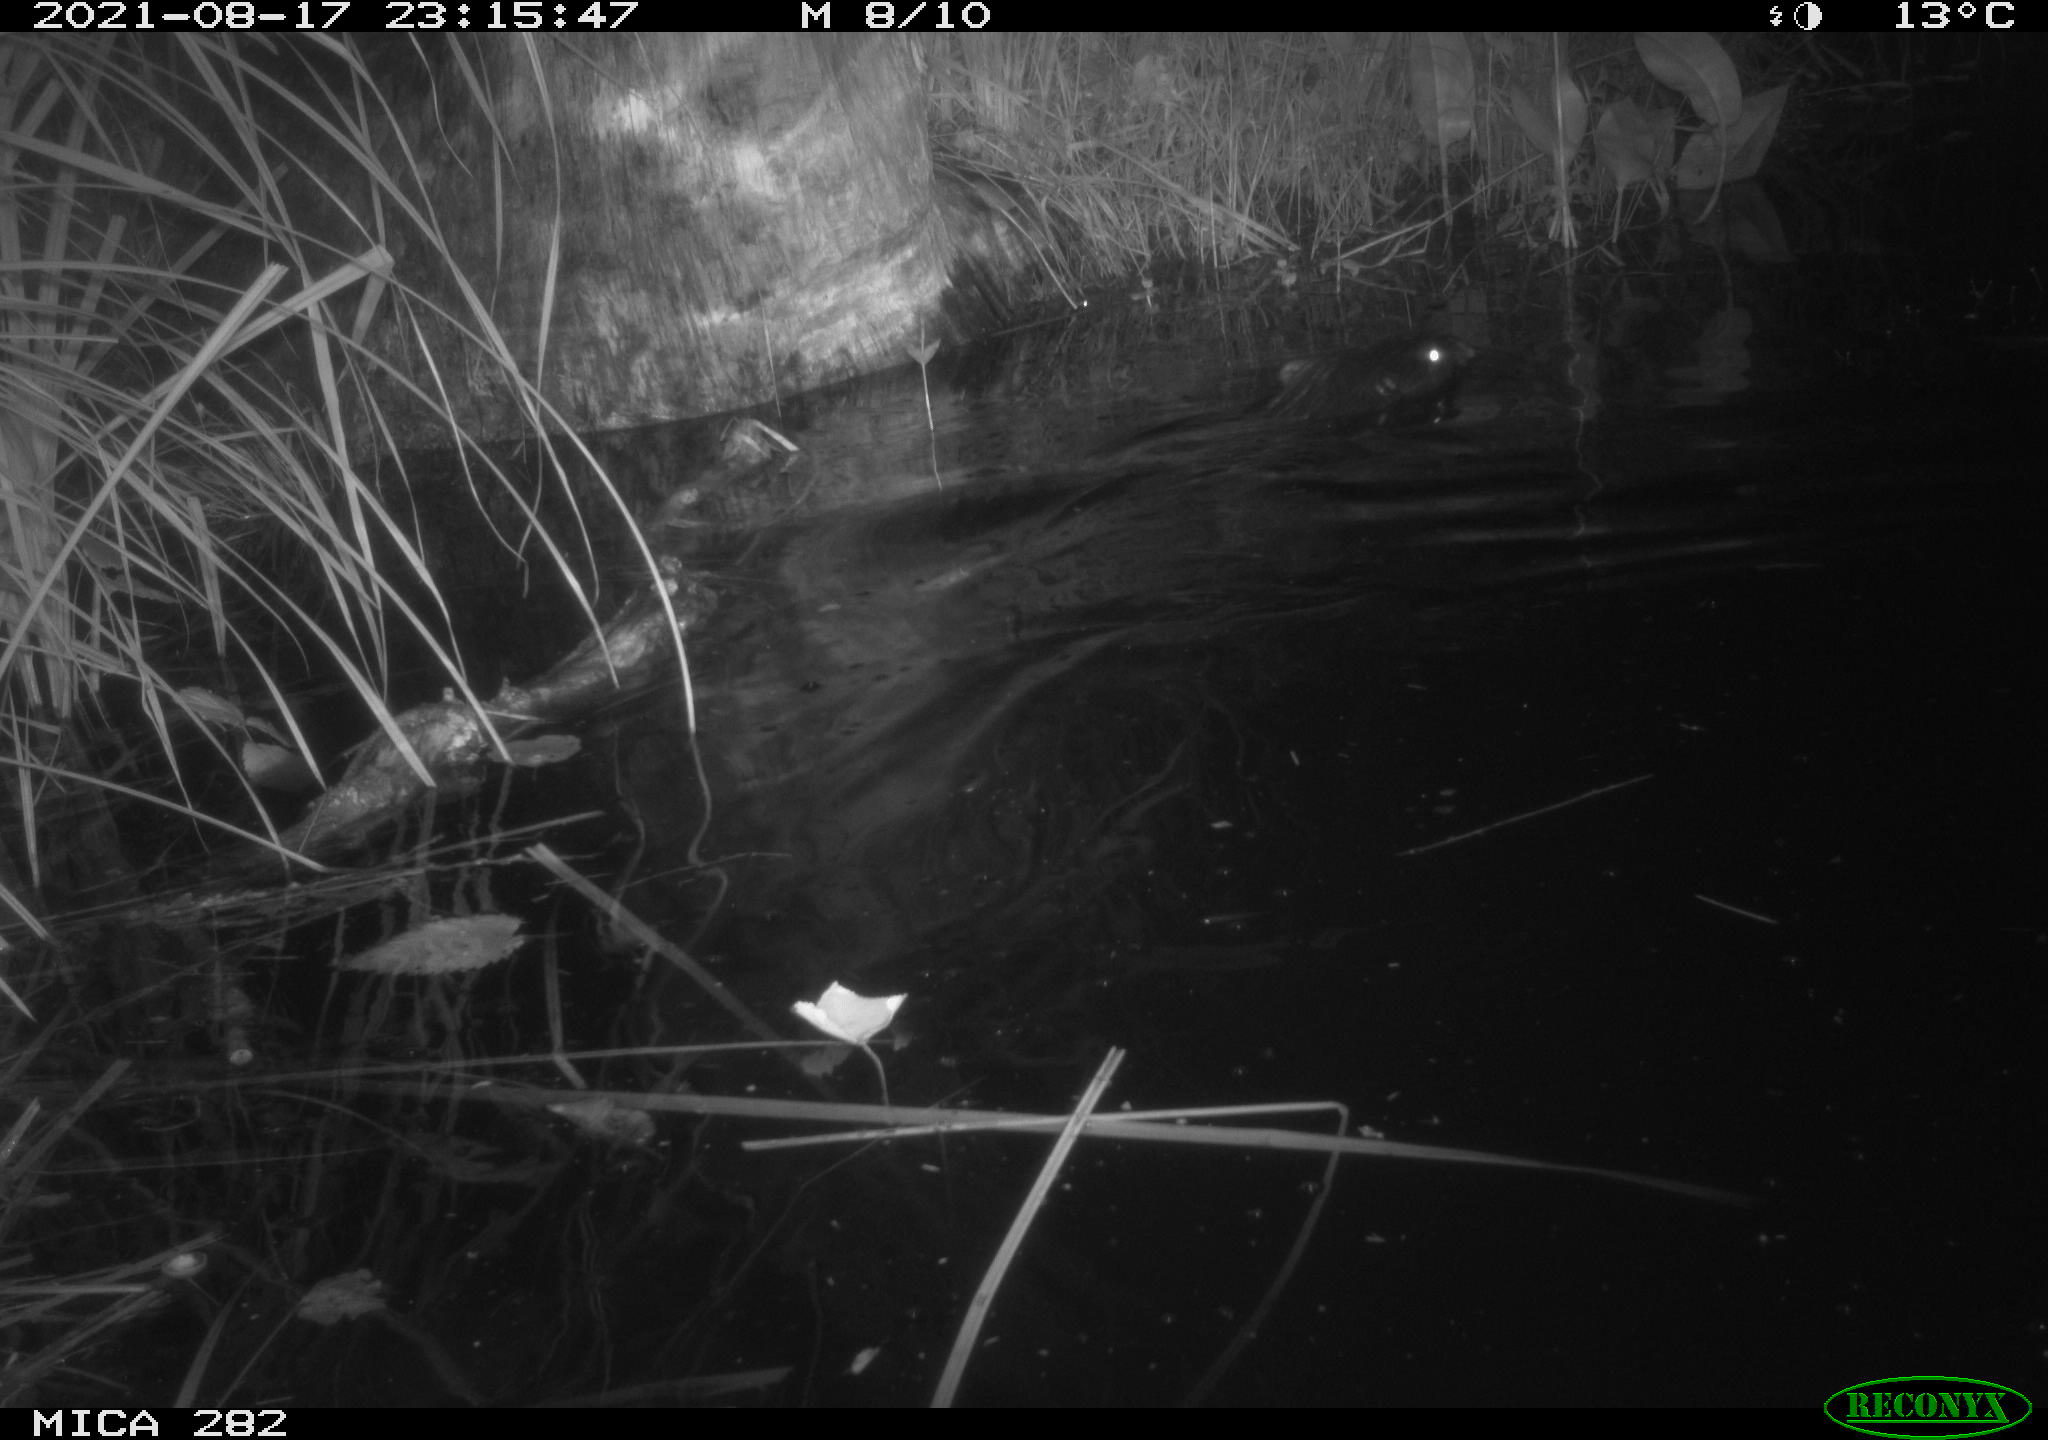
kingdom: Animalia
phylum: Chordata
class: Mammalia
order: Rodentia
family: Castoridae
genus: Castor
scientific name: Castor fiber
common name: Eurasian beaver
